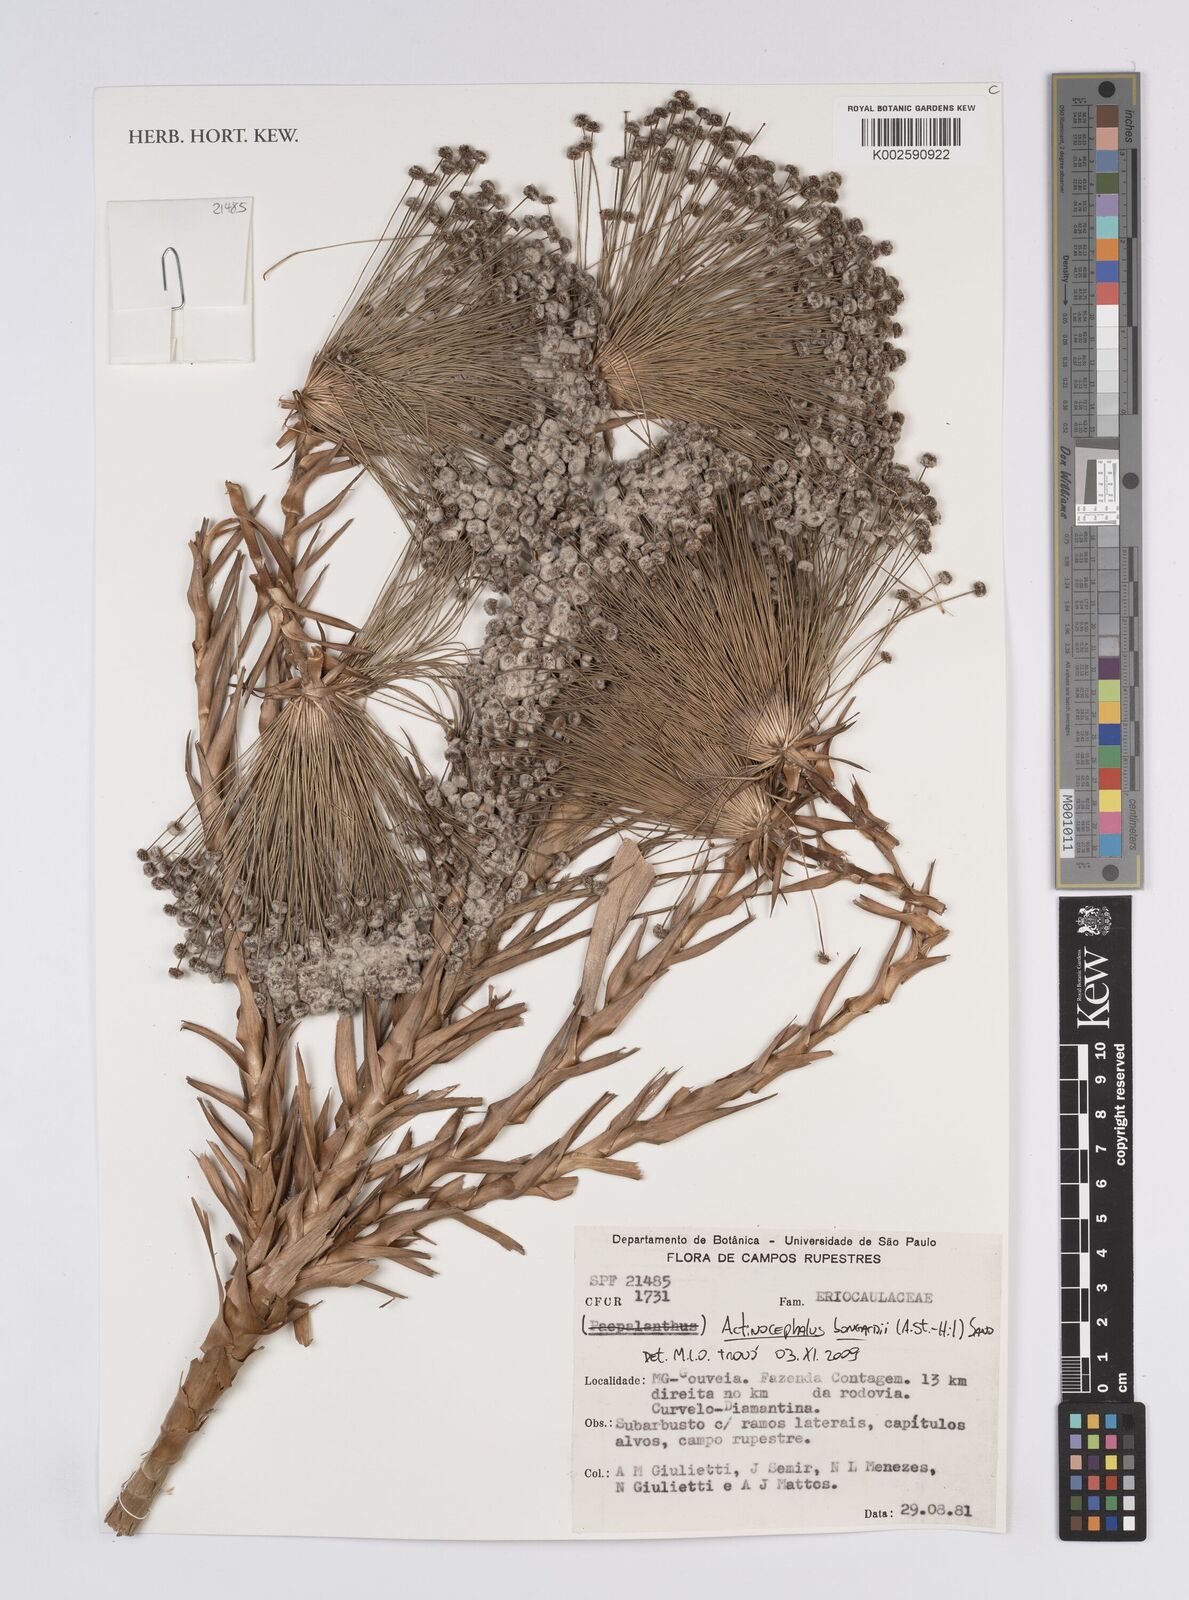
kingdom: Plantae
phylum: Tracheophyta
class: Liliopsida
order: Poales
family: Eriocaulaceae
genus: Paepalanthus
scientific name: Paepalanthus hilairei
